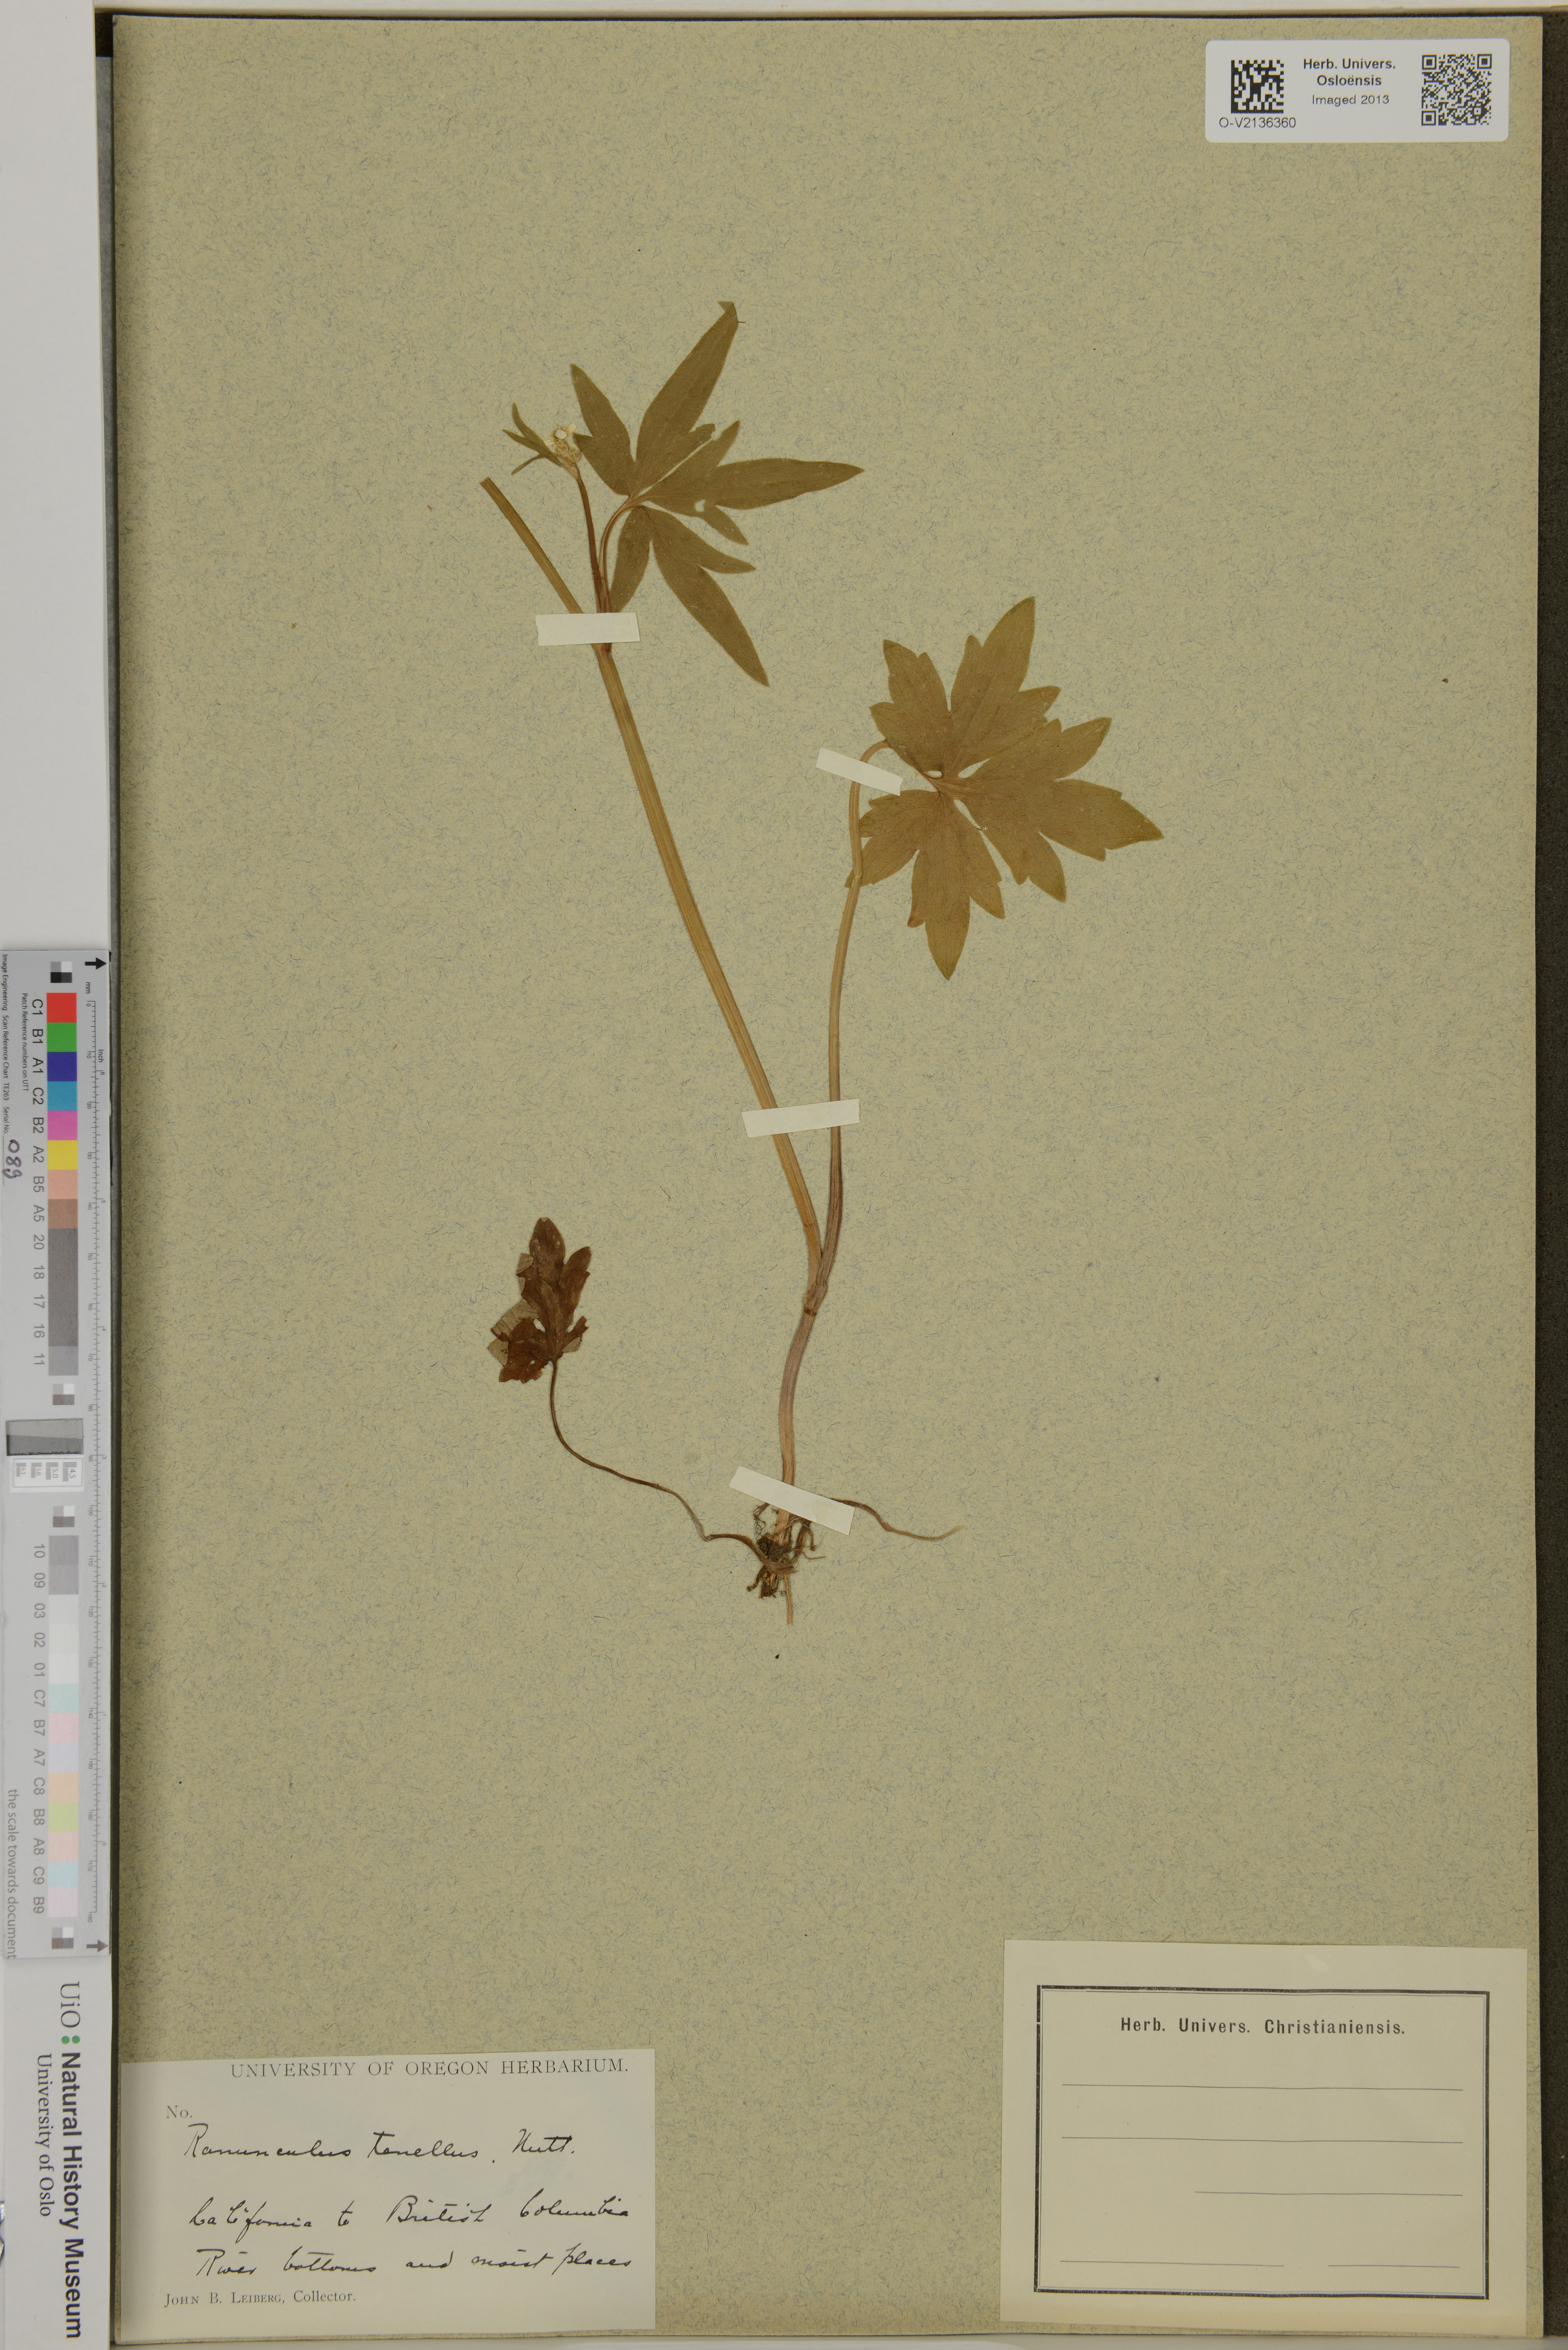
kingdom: Plantae
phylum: Tracheophyta
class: Magnoliopsida
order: Ranunculales
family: Ranunculaceae
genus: Ranunculus
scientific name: Ranunculus
